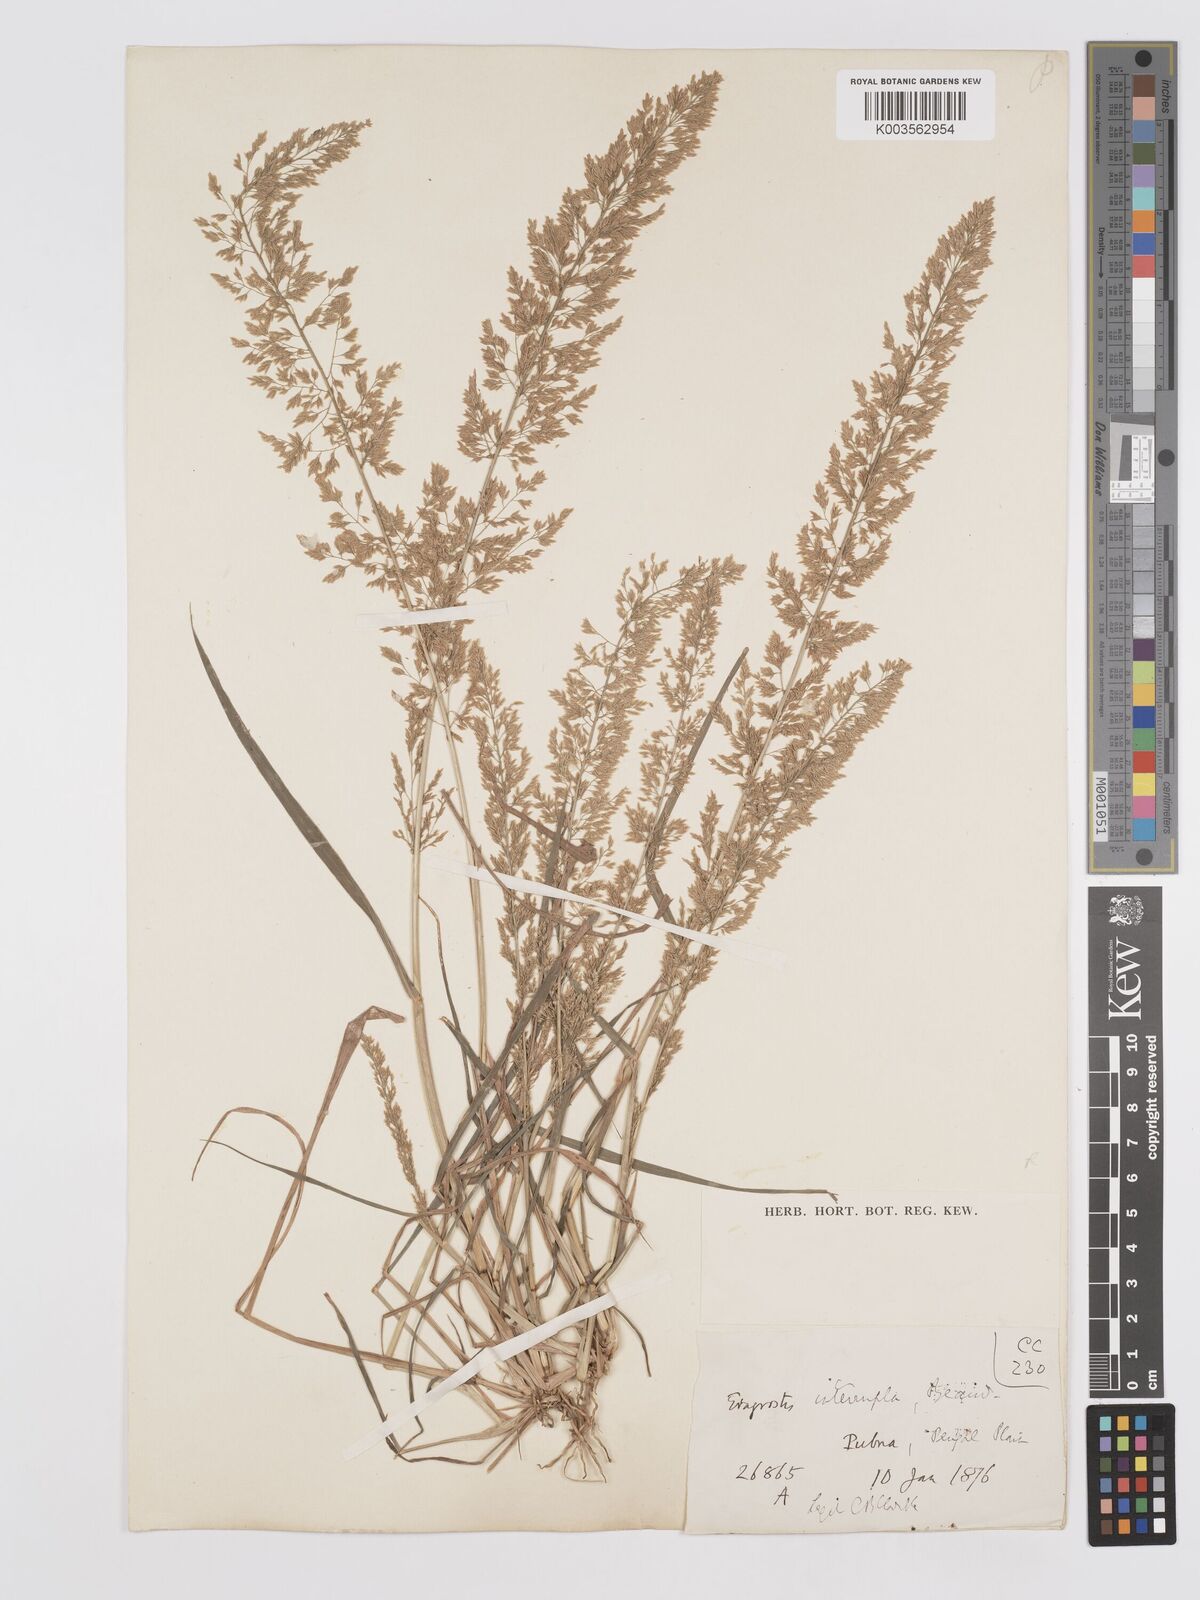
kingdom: Plantae
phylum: Tracheophyta
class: Liliopsida
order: Poales
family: Poaceae
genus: Eragrostis
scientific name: Eragrostis japonica
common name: Pond lovegrass
